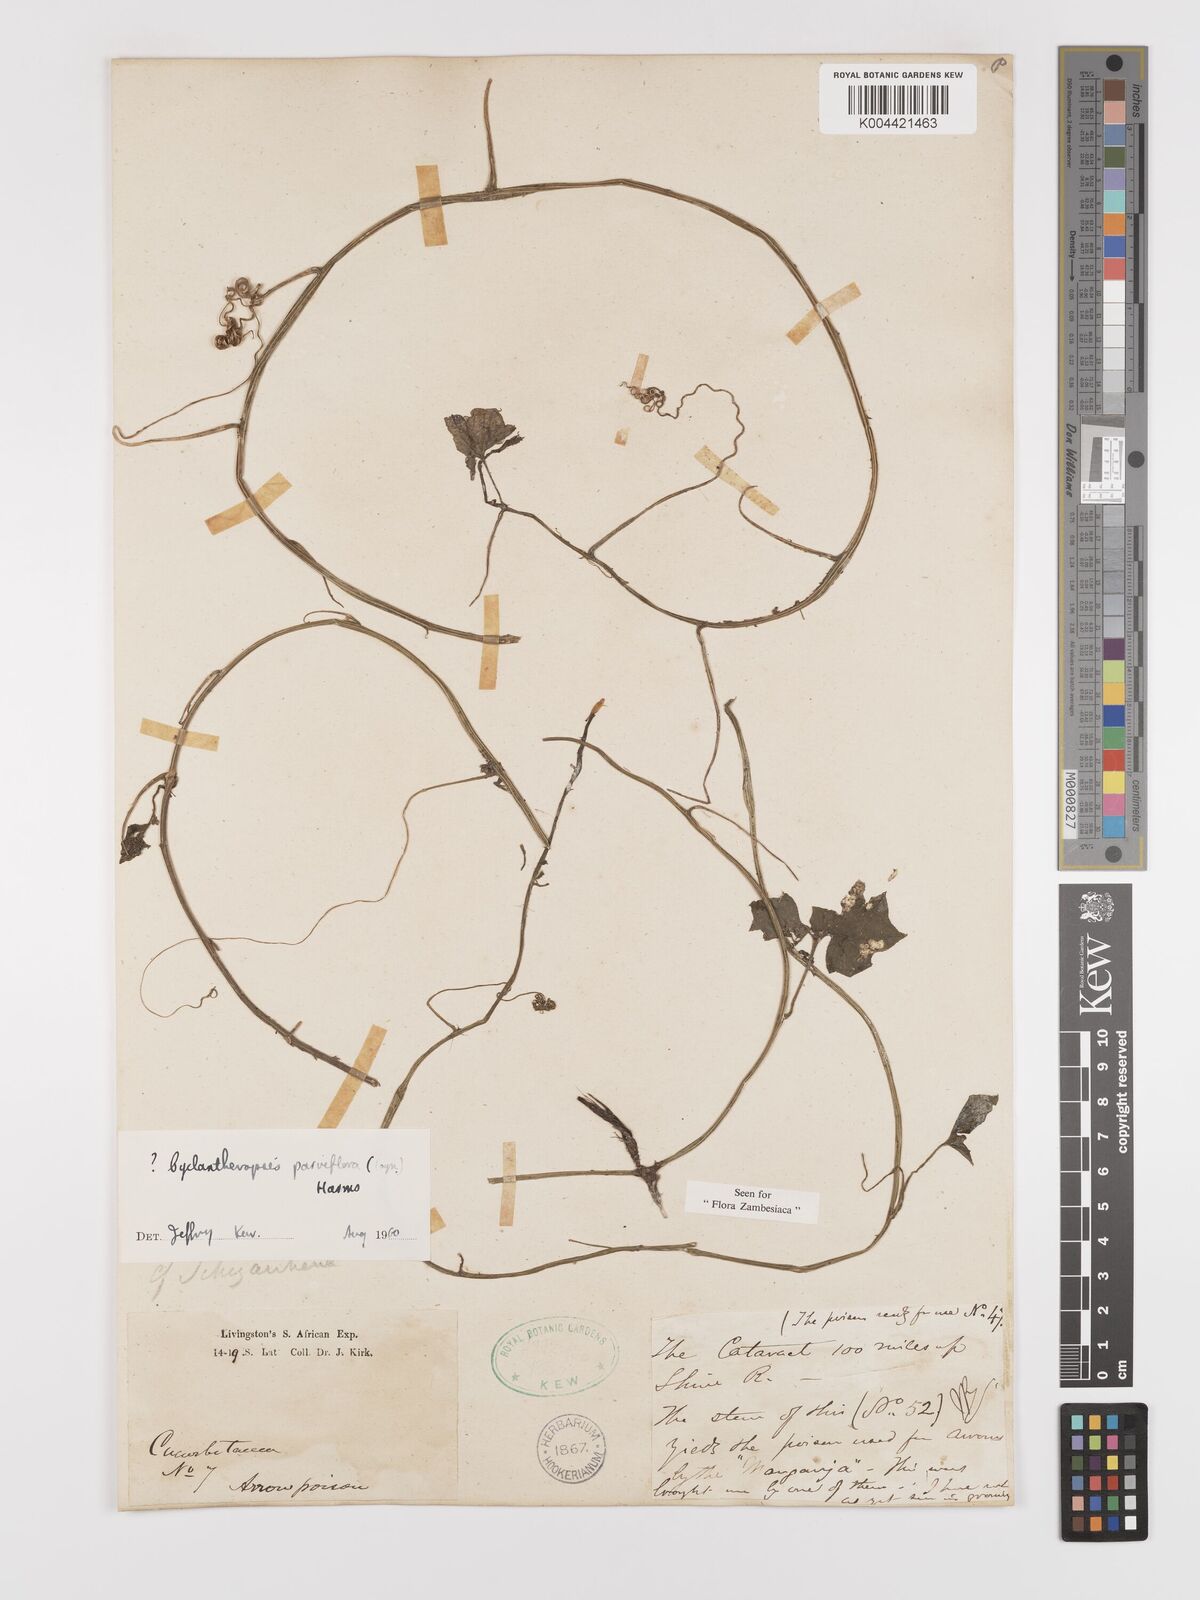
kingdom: Plantae
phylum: Tracheophyta
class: Magnoliopsida
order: Cucurbitales
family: Cucurbitaceae
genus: Cyclantheropsis
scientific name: Cyclantheropsis parviflora
